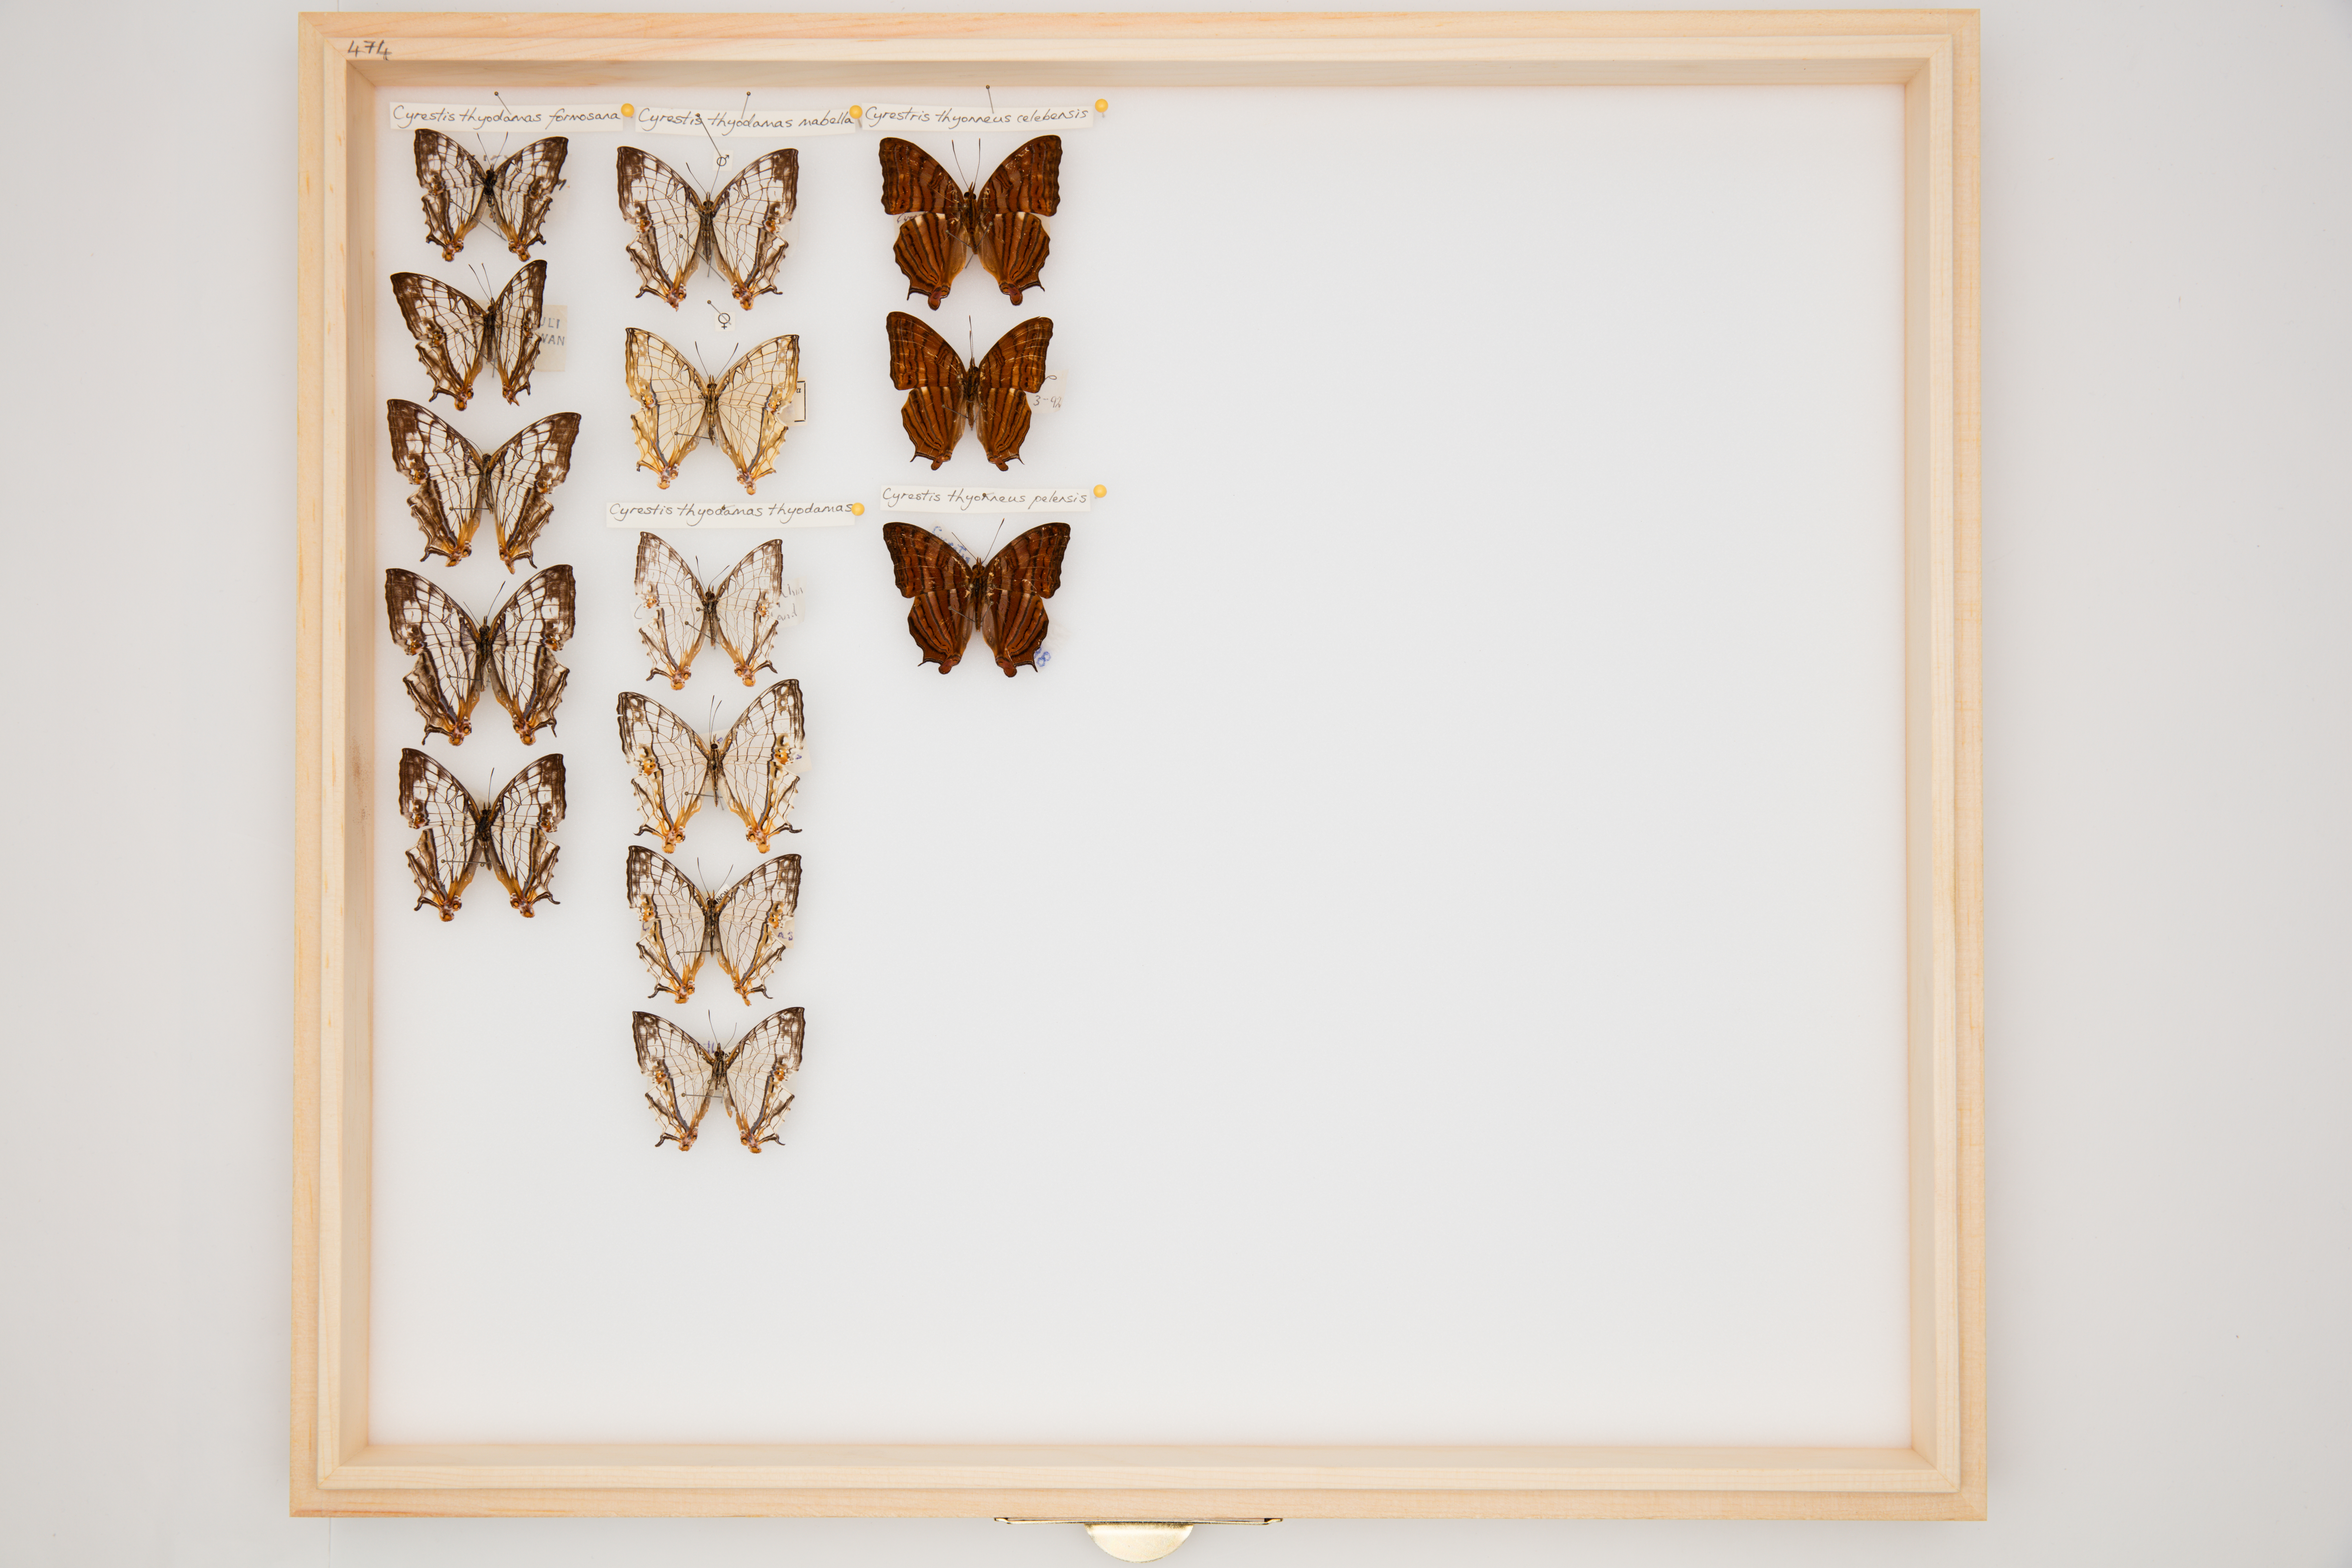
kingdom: Animalia
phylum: Arthropoda
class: Insecta
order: Lepidoptera
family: Nymphalidae
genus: Cyrestis
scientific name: Cyrestis thyonneus
